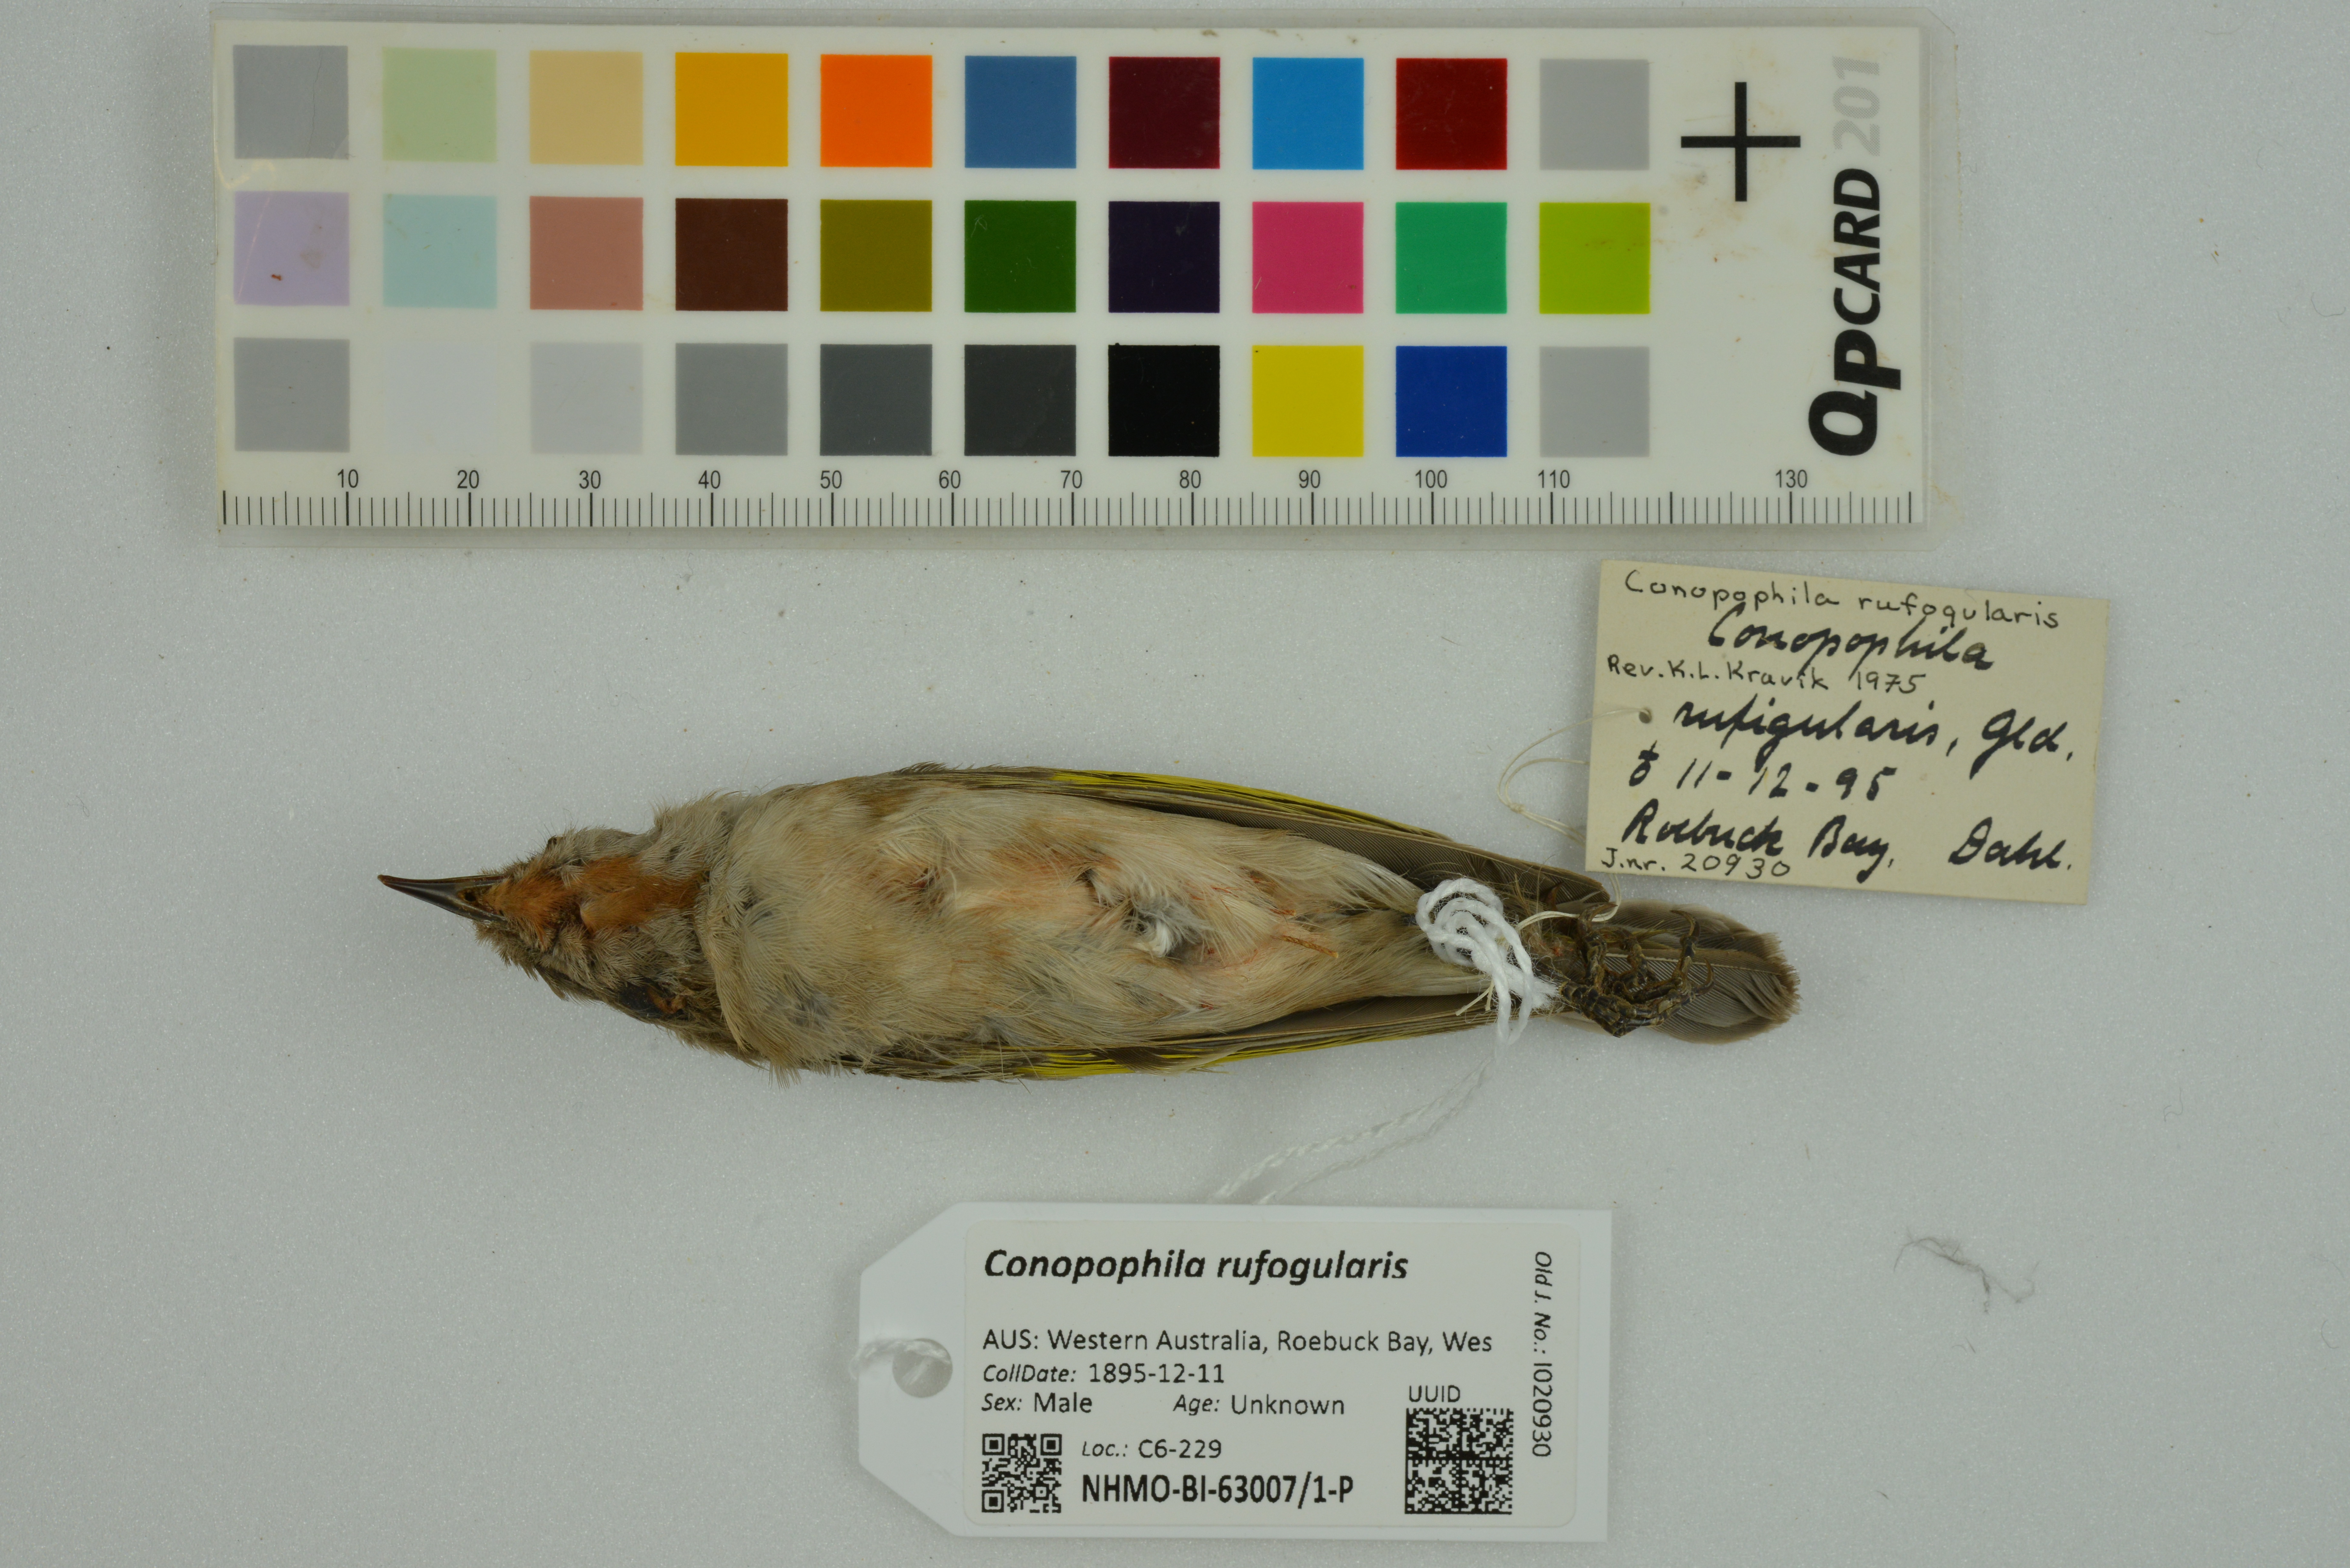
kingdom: Animalia
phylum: Chordata
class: Aves
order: Passeriformes
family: Meliphagidae
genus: Conopophila
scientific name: Conopophila rufogularis
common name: Rufous-throated honeyeater
